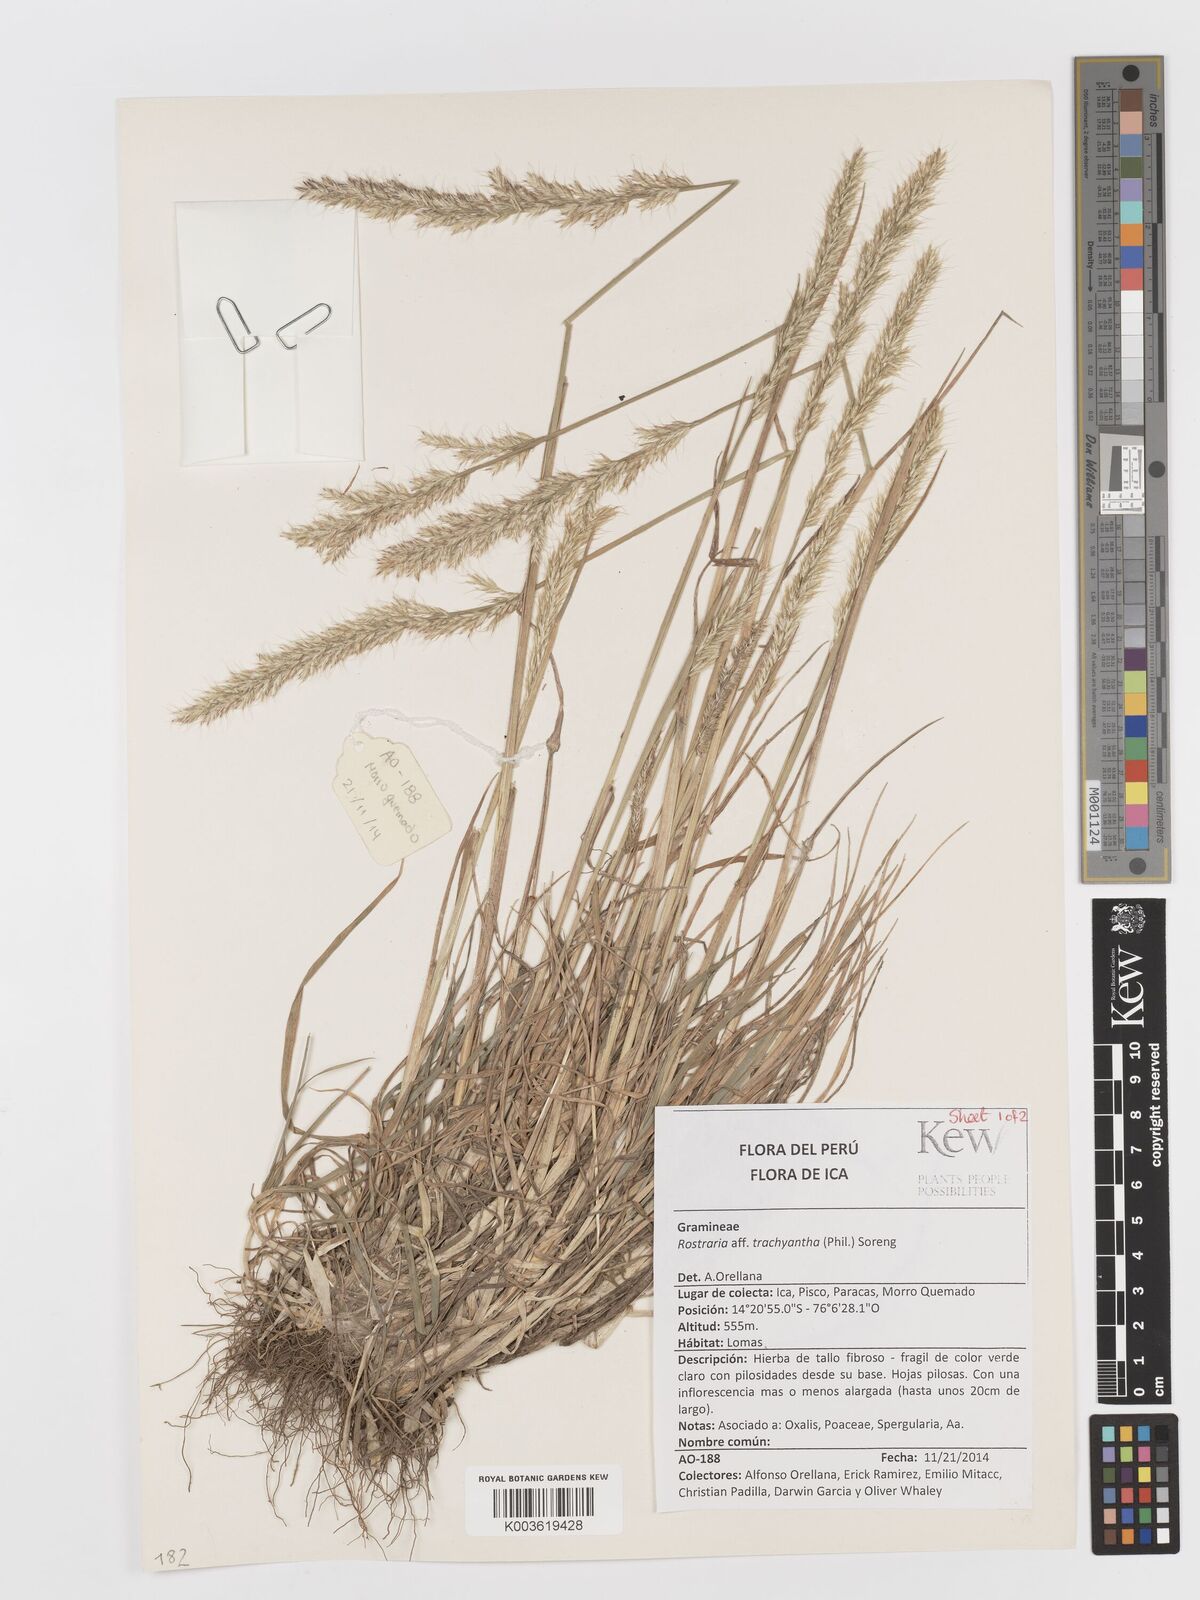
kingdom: Plantae
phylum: Tracheophyta
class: Liliopsida
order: Poales
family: Poaceae
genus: Rostraria
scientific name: Rostraria trachyantha
